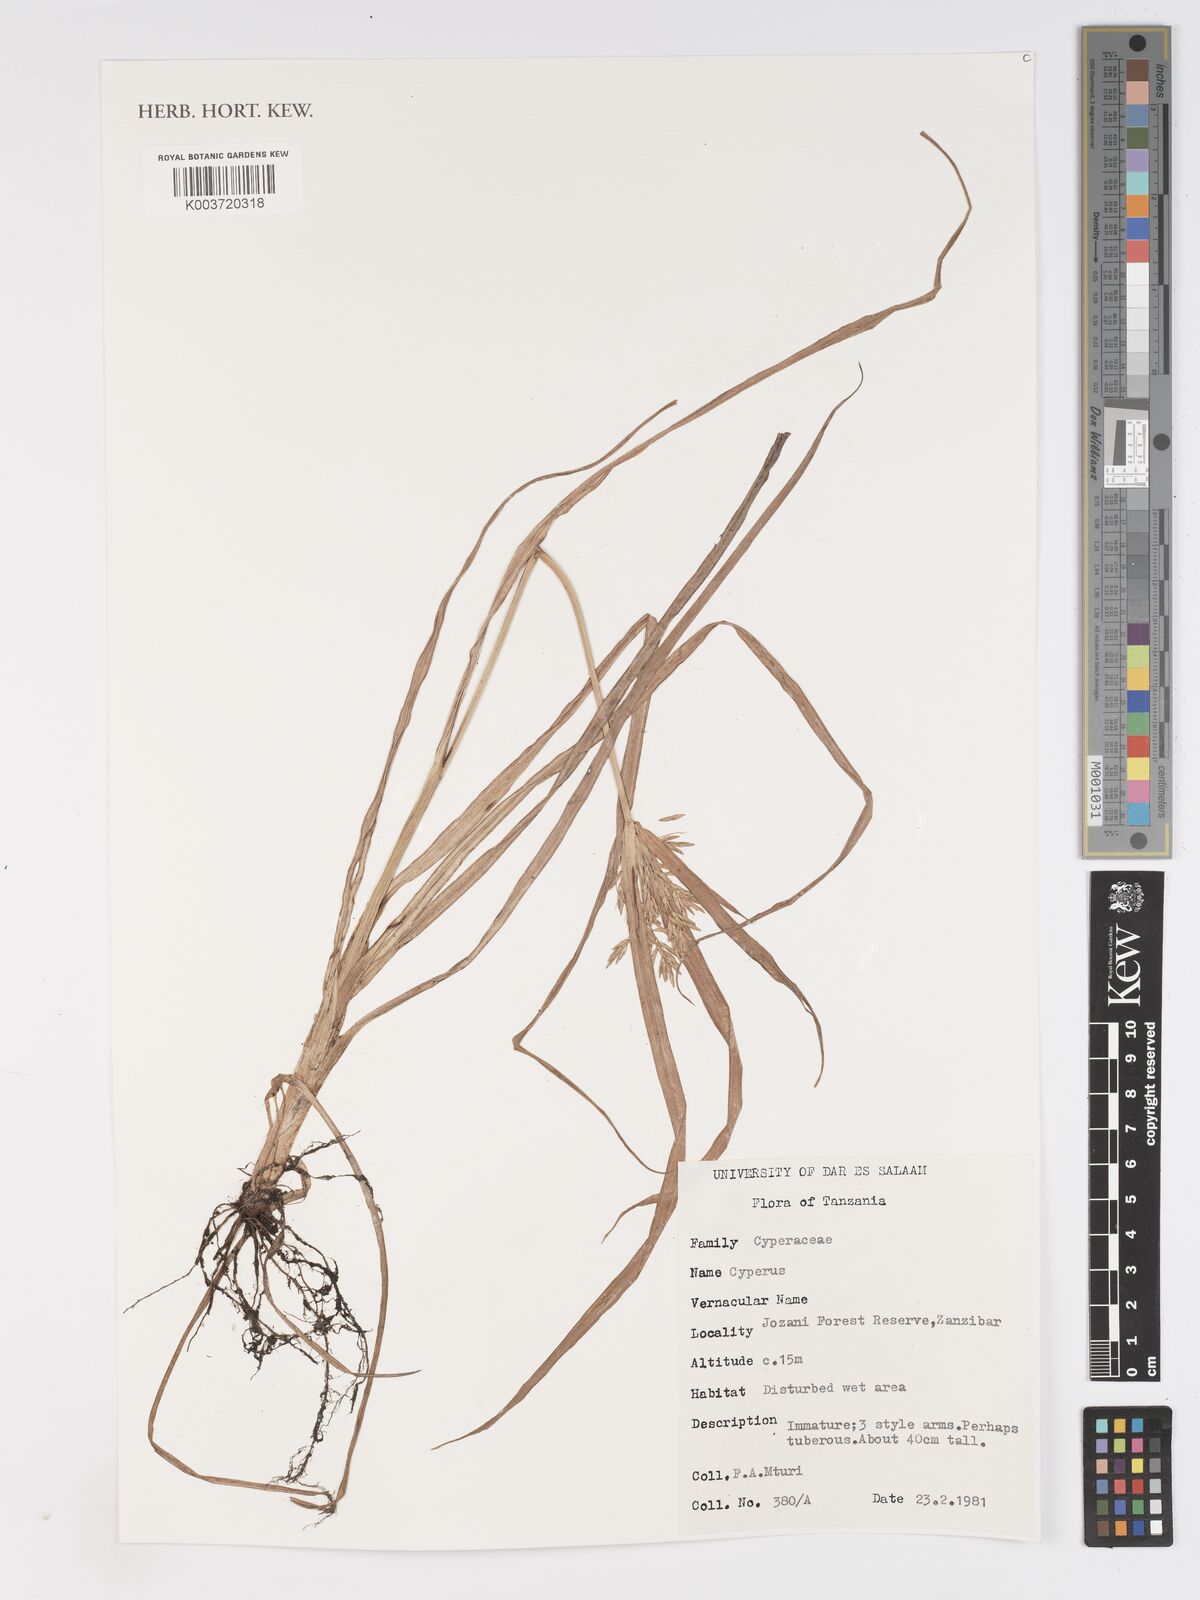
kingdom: Plantae
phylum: Tracheophyta
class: Liliopsida
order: Poales
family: Cyperaceae
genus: Cyperus
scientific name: Cyperus
